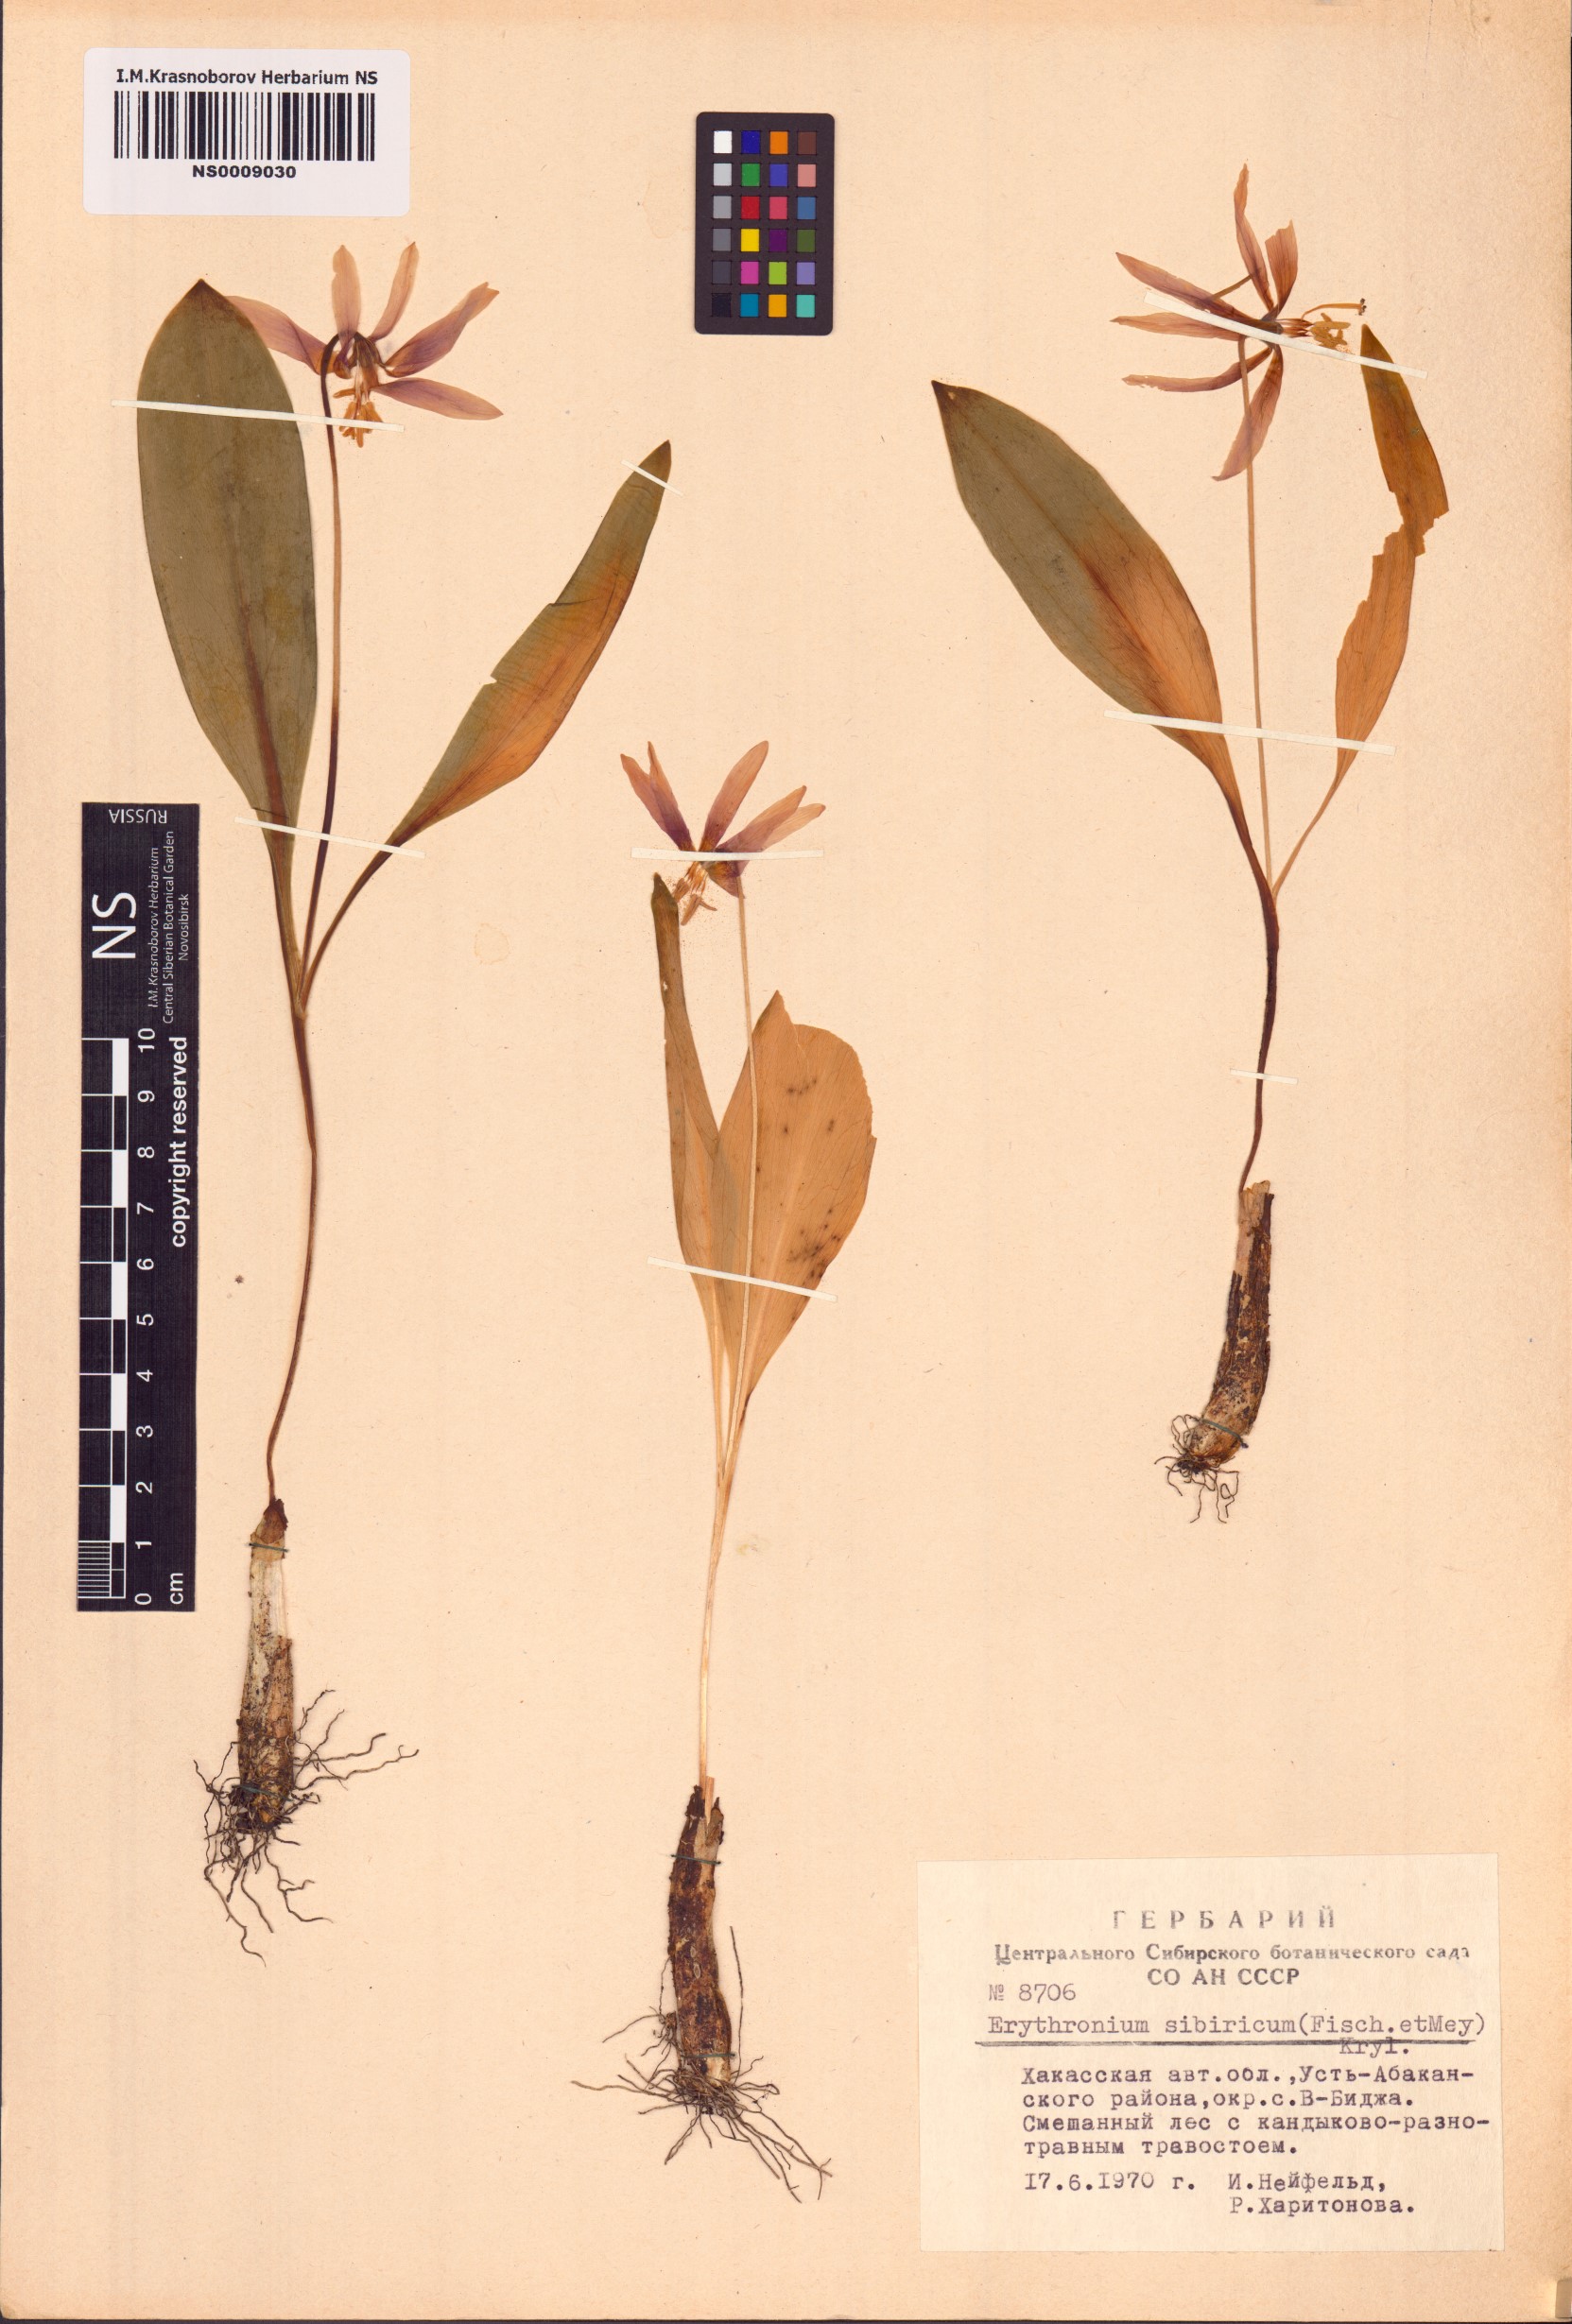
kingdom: Plantae
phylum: Tracheophyta
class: Liliopsida
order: Liliales
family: Liliaceae
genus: Erythronium
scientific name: Erythronium sibiricum
